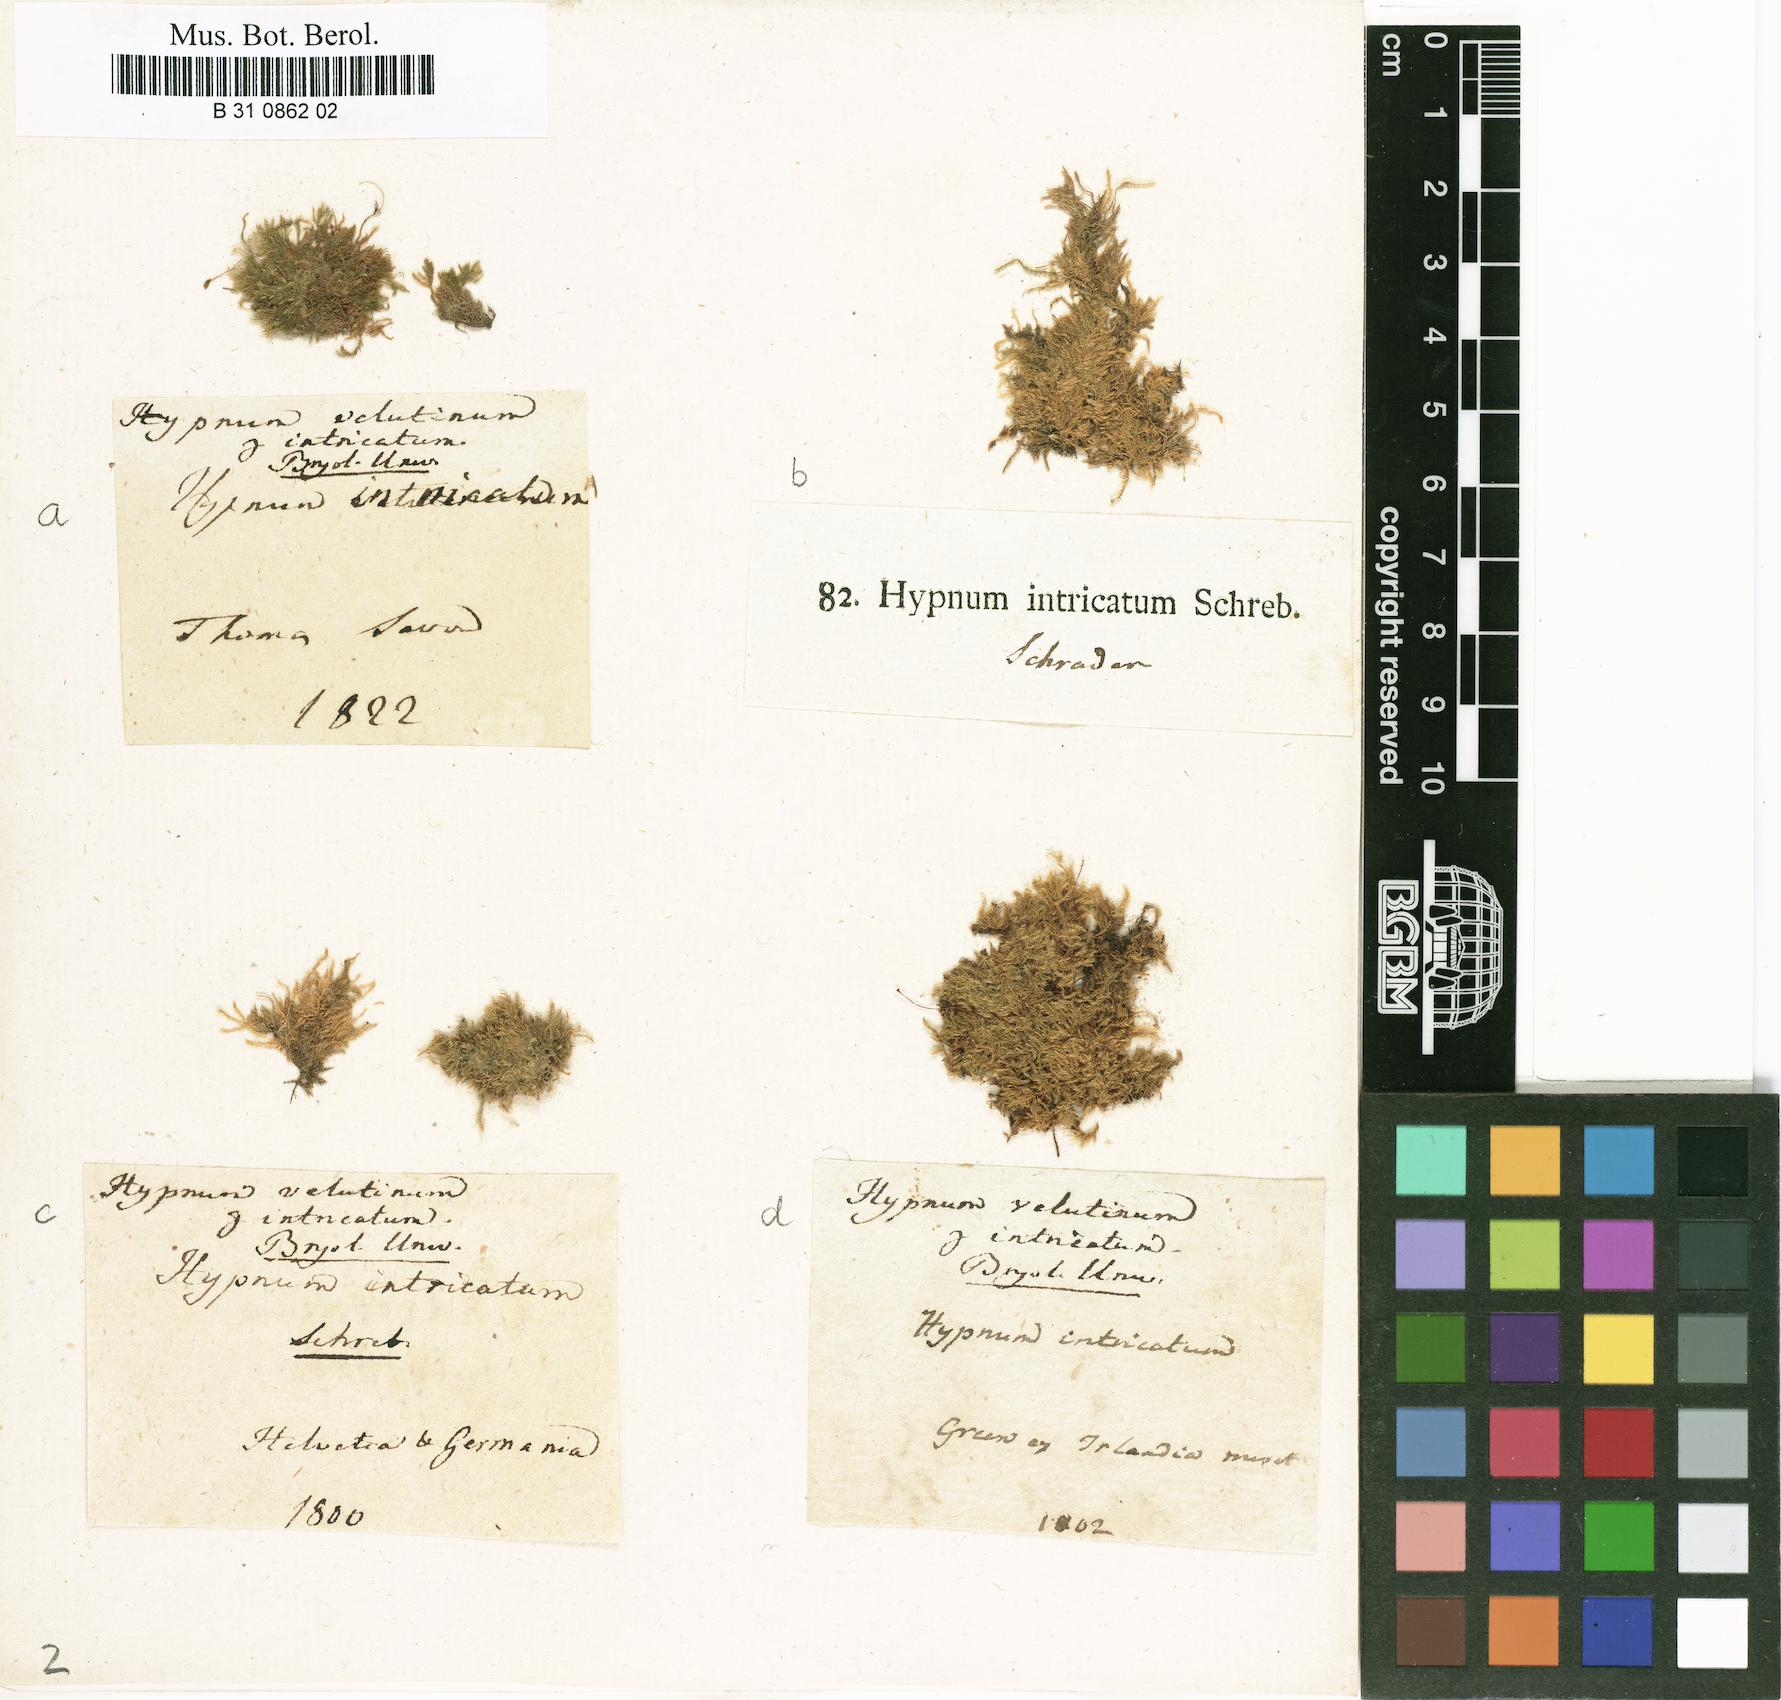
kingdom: Plantae
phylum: Bryophyta
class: Bryopsida
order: Hypnales
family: Brachytheciaceae
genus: Brachytheciastrum
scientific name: Brachytheciastrum velutinum
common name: Velvet feather-moss
